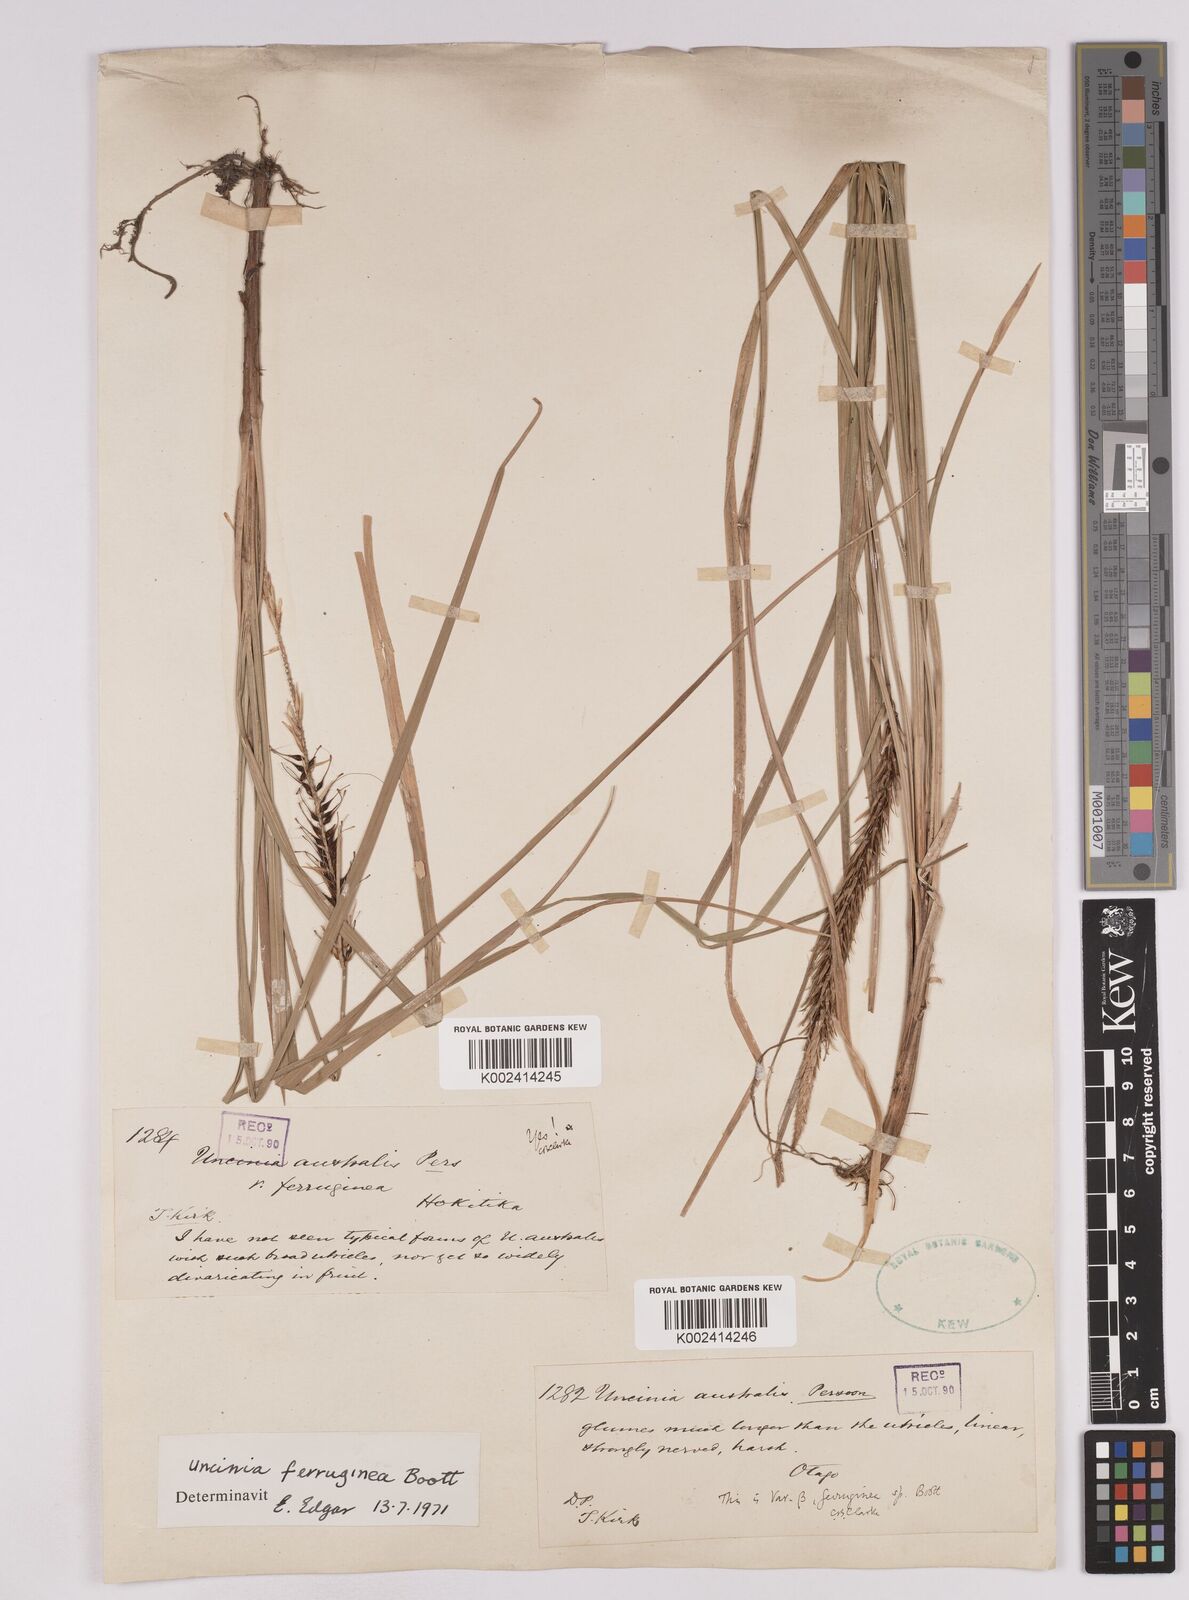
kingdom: Plantae
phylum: Tracheophyta
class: Liliopsida
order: Poales
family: Cyperaceae
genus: Carex
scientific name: Carex uncinata
